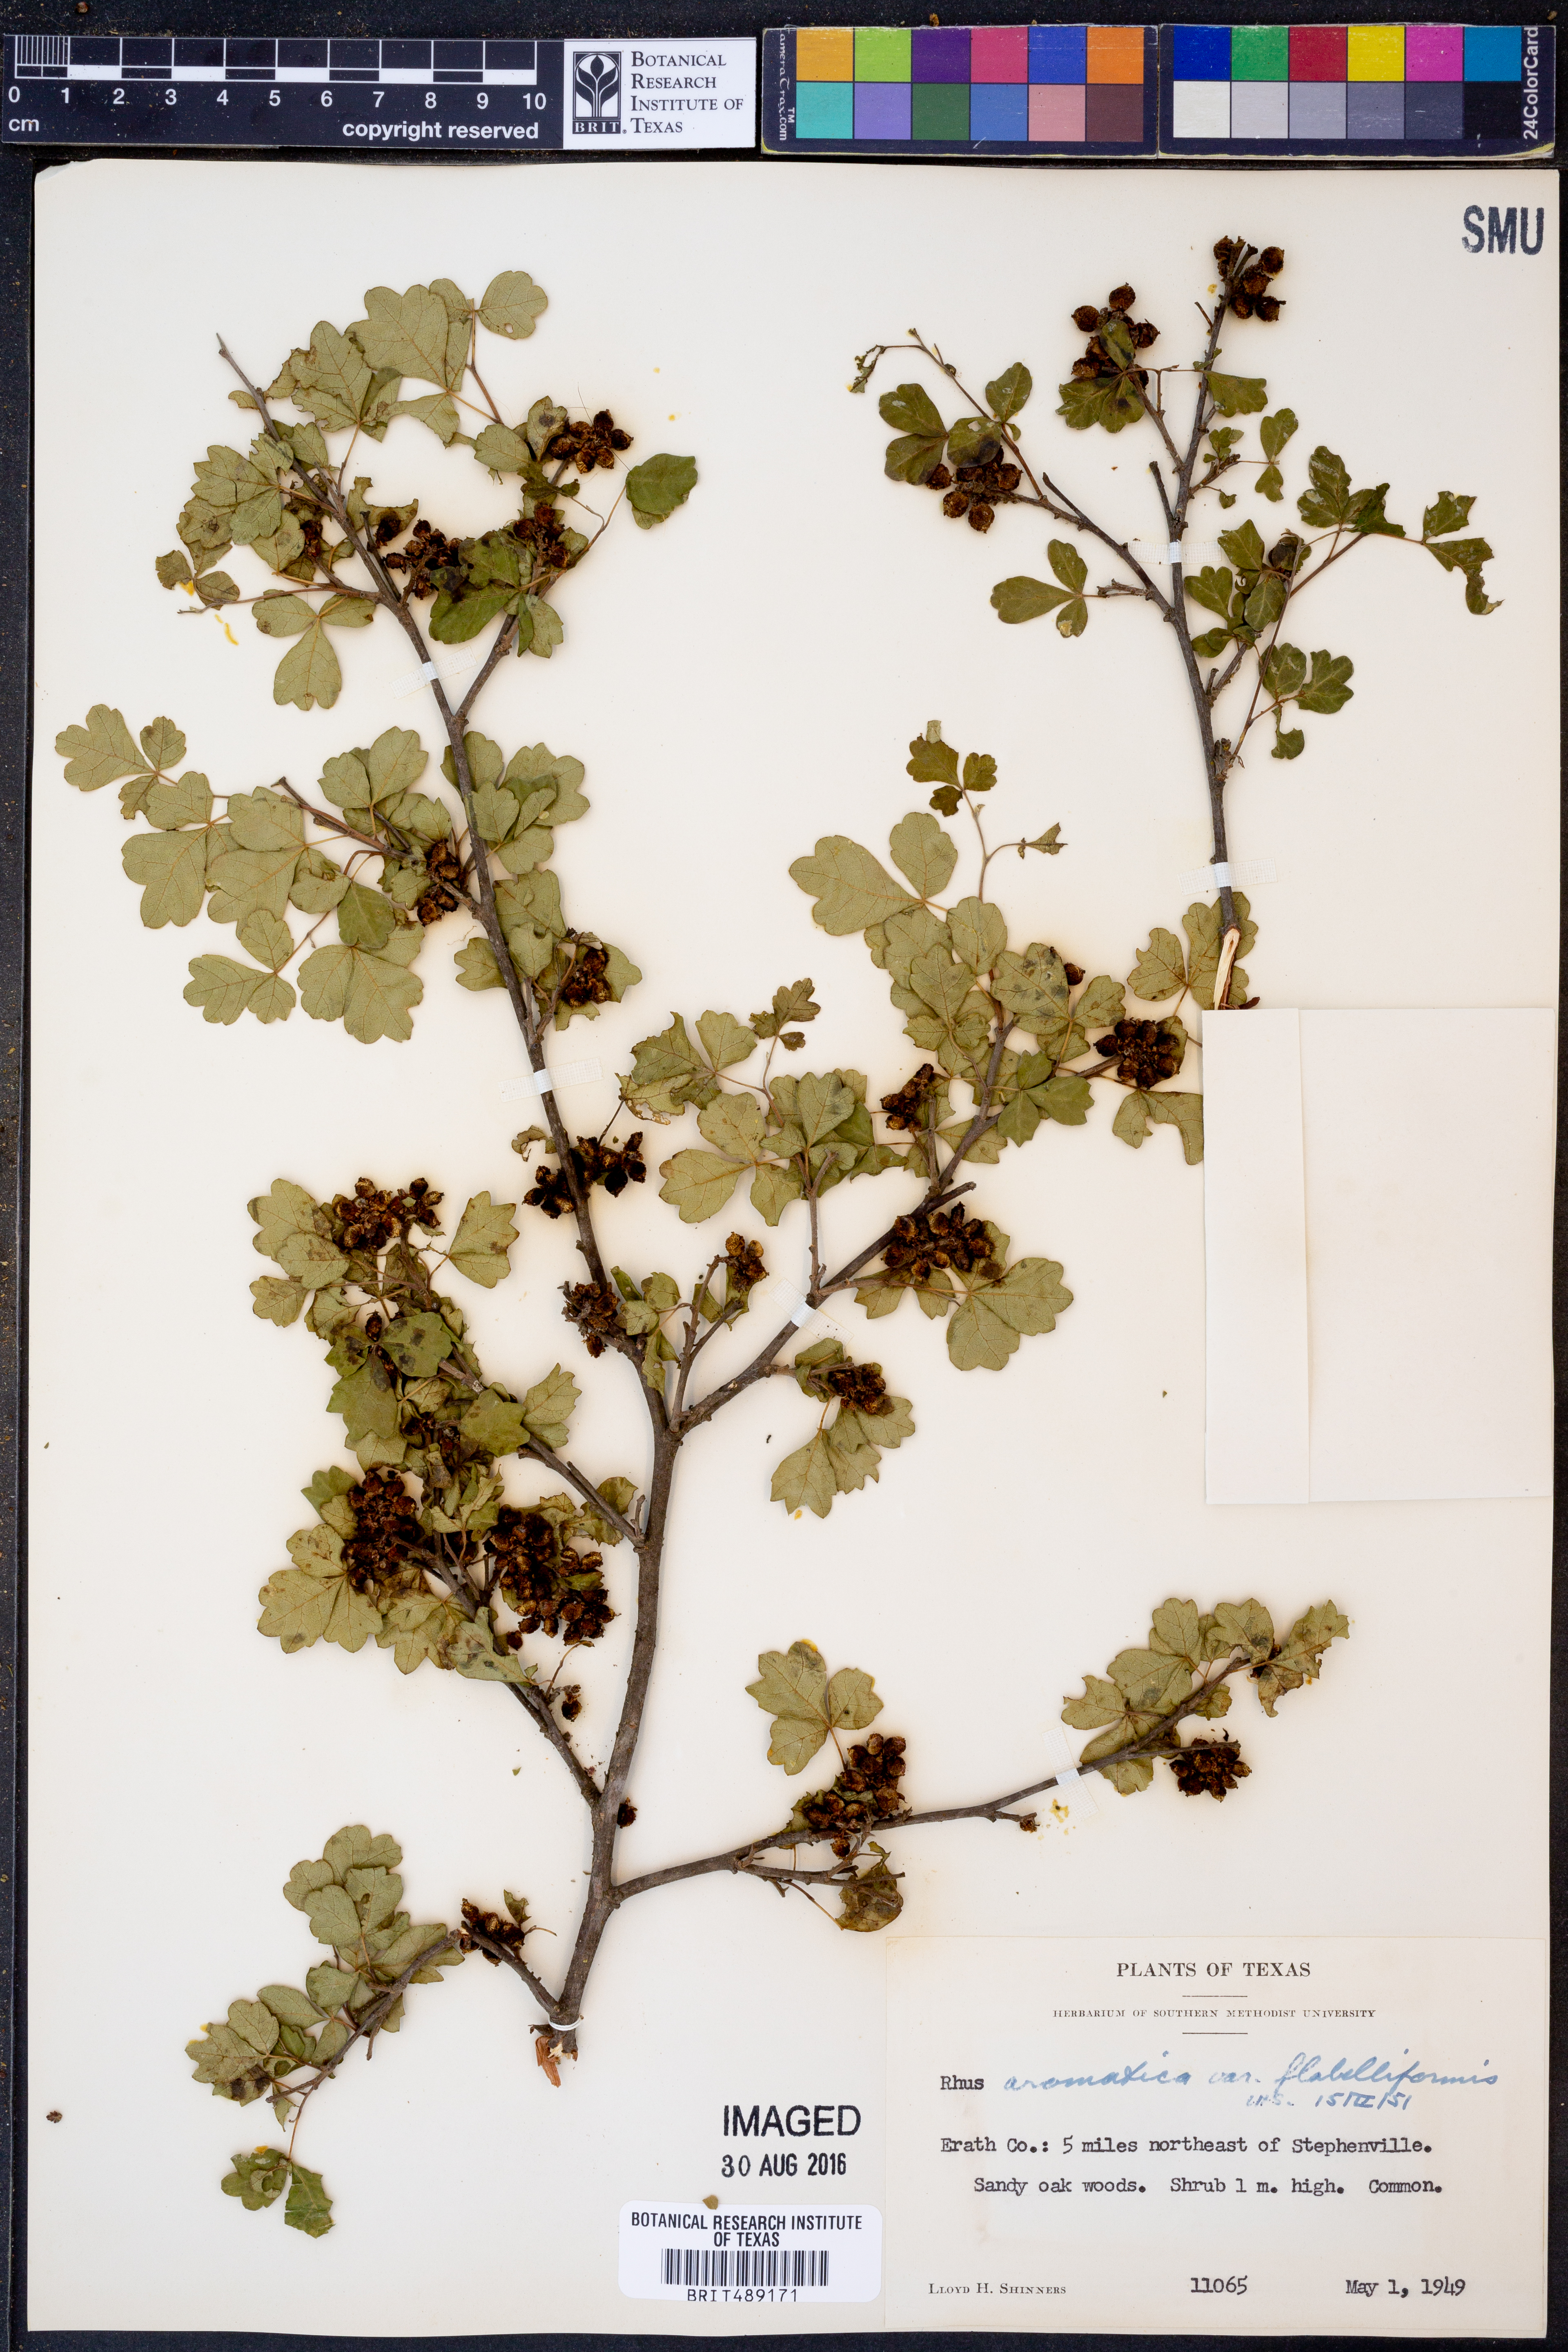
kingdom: Plantae
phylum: Tracheophyta
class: Magnoliopsida
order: Sapindales
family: Anacardiaceae
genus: Rhus
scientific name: Rhus trilobata
